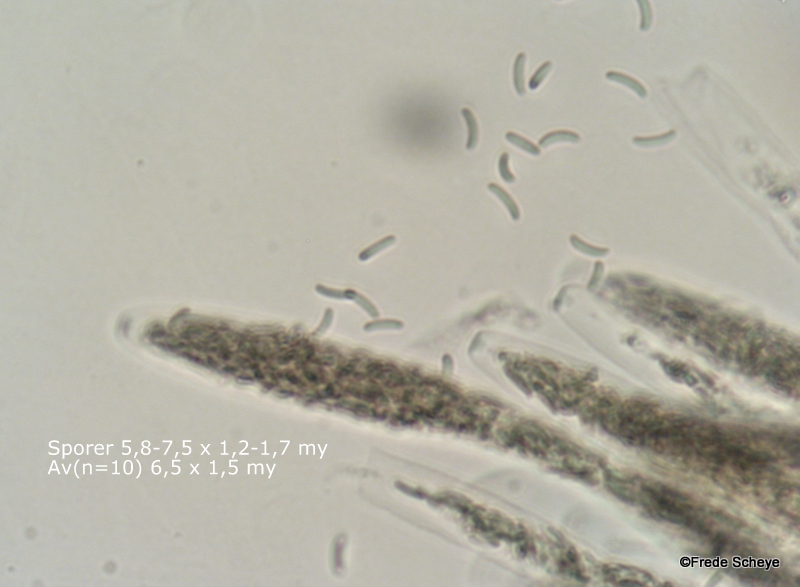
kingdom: Fungi
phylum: Ascomycota
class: Sordariomycetes
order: Xylariales
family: Diatrypaceae
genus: Diatrypella
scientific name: Diatrypella favacea
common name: klemt kulskorpe
